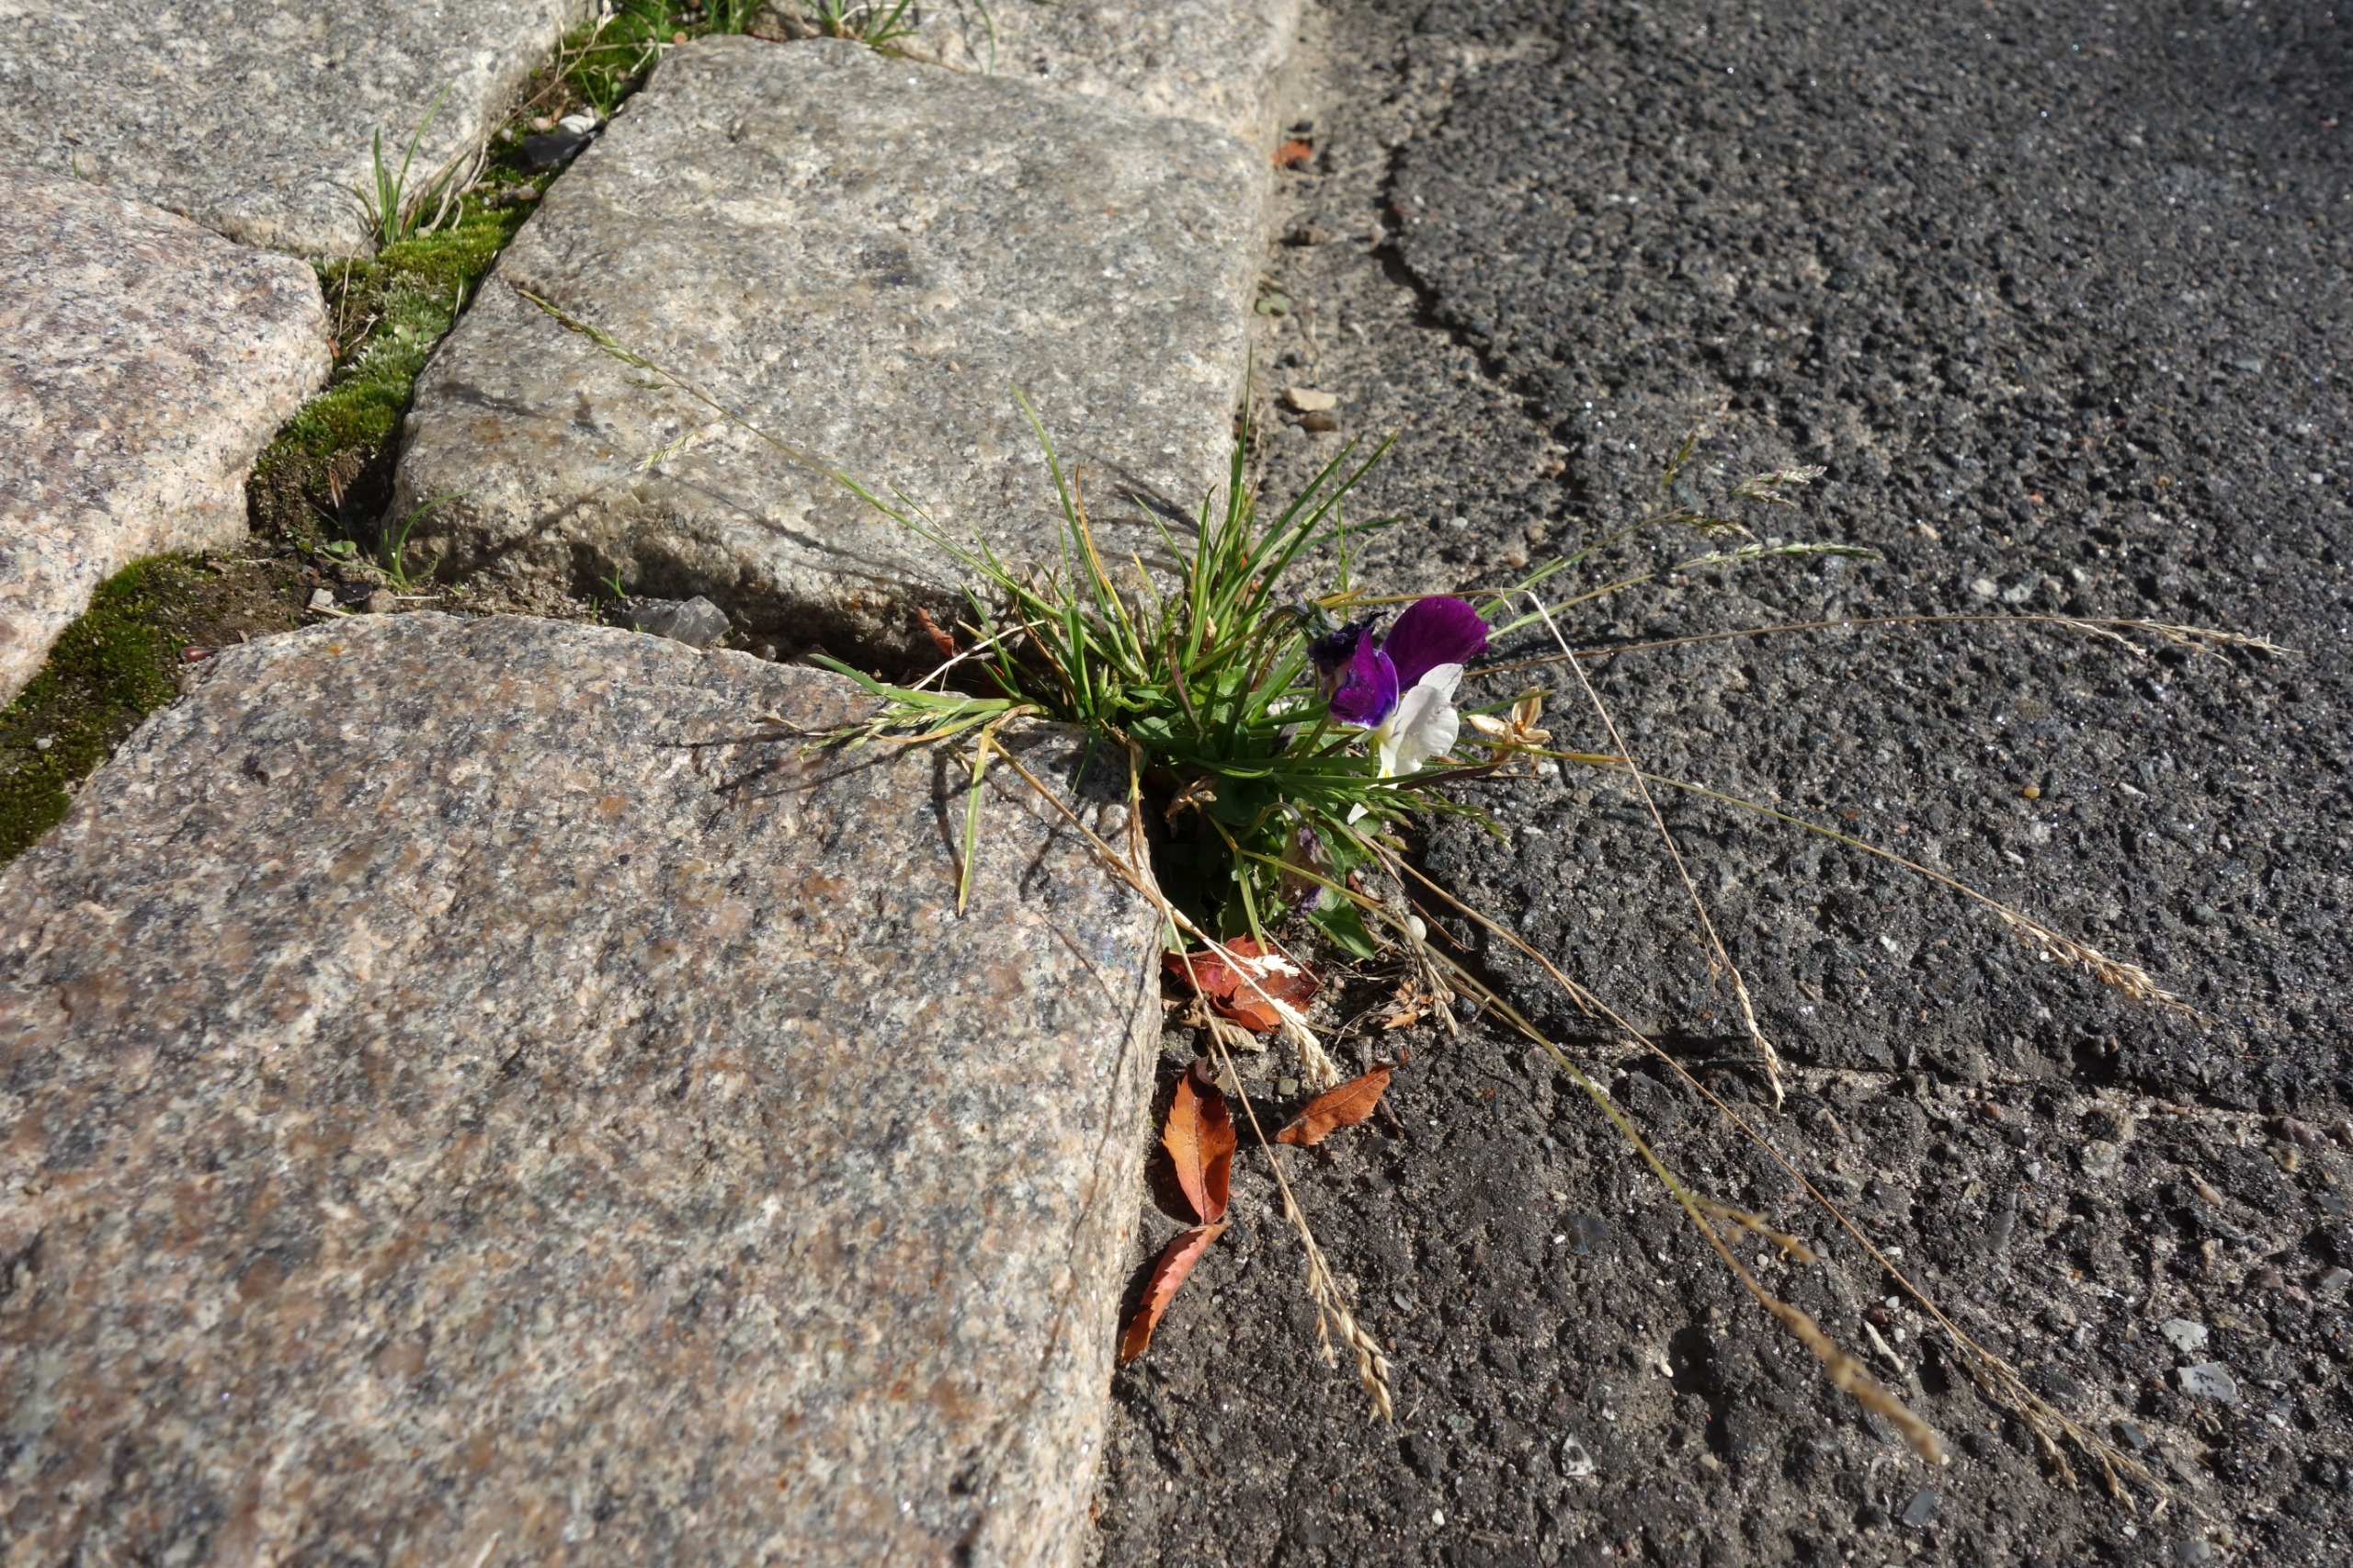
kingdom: Plantae
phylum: Tracheophyta
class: Magnoliopsida
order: Malpighiales
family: Violaceae
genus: Viola
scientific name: Viola wittrockiana
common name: Have-stedmoderblomst
